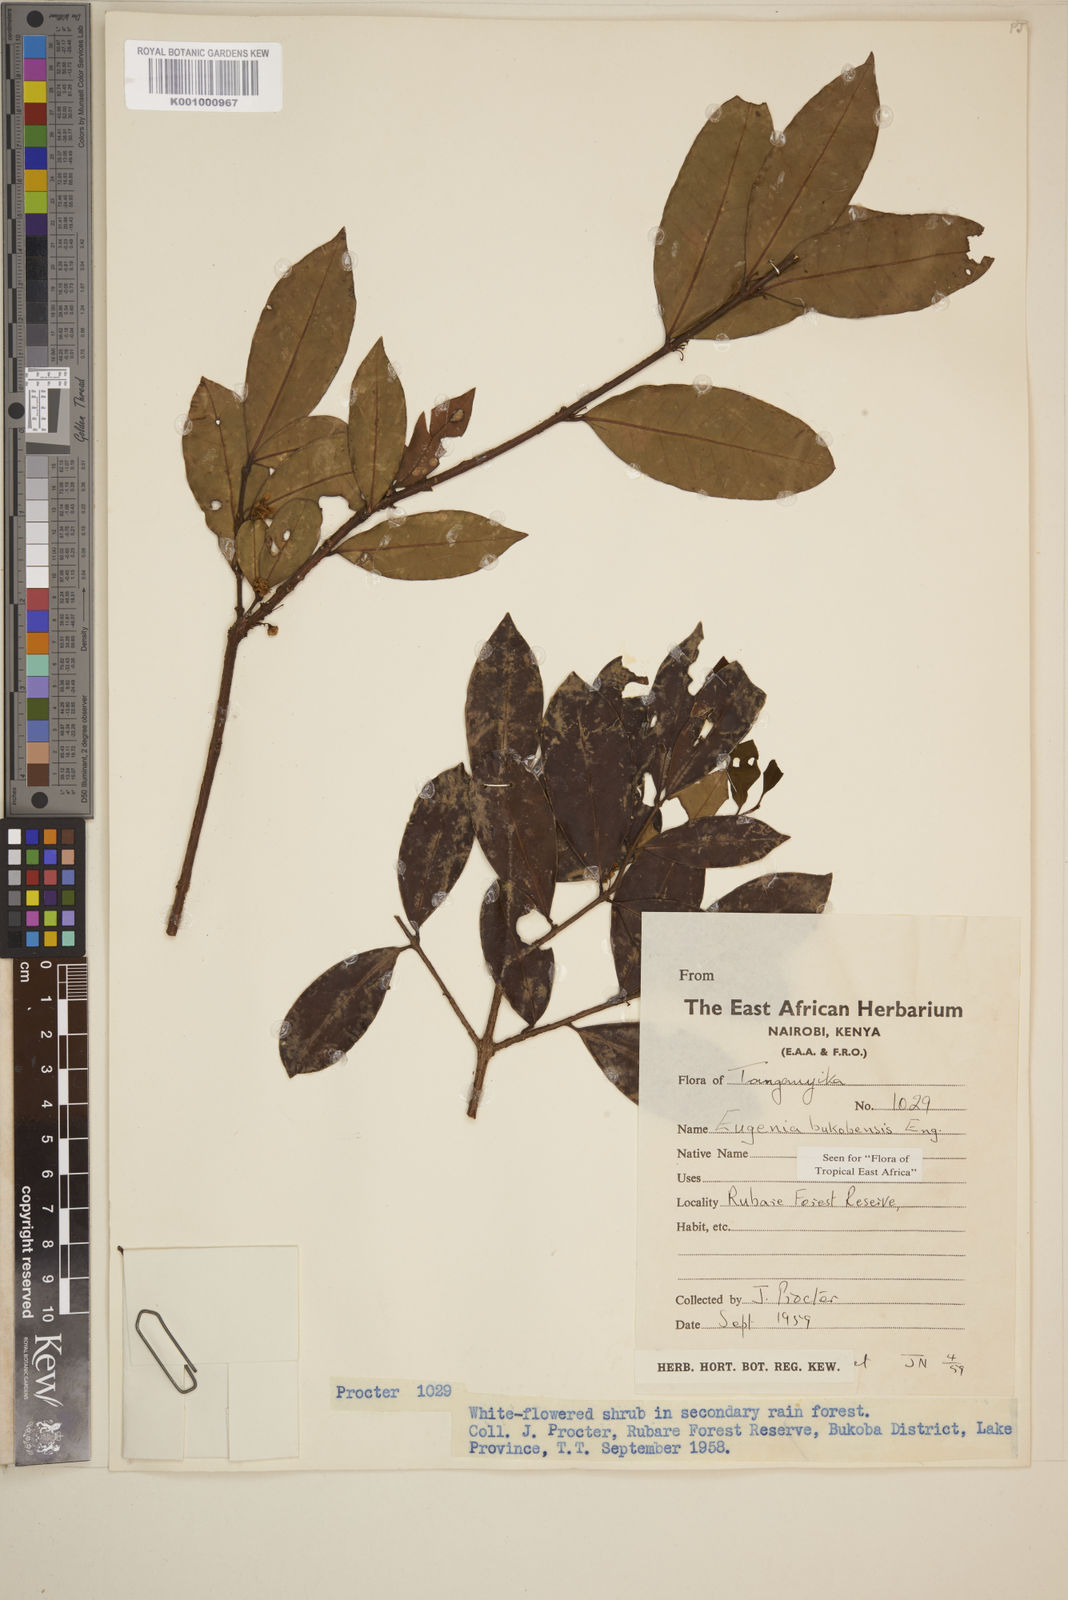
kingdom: Plantae
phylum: Tracheophyta
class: Magnoliopsida
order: Myrtales
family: Myrtaceae
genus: Eugenia
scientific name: Eugenia bukobensis
